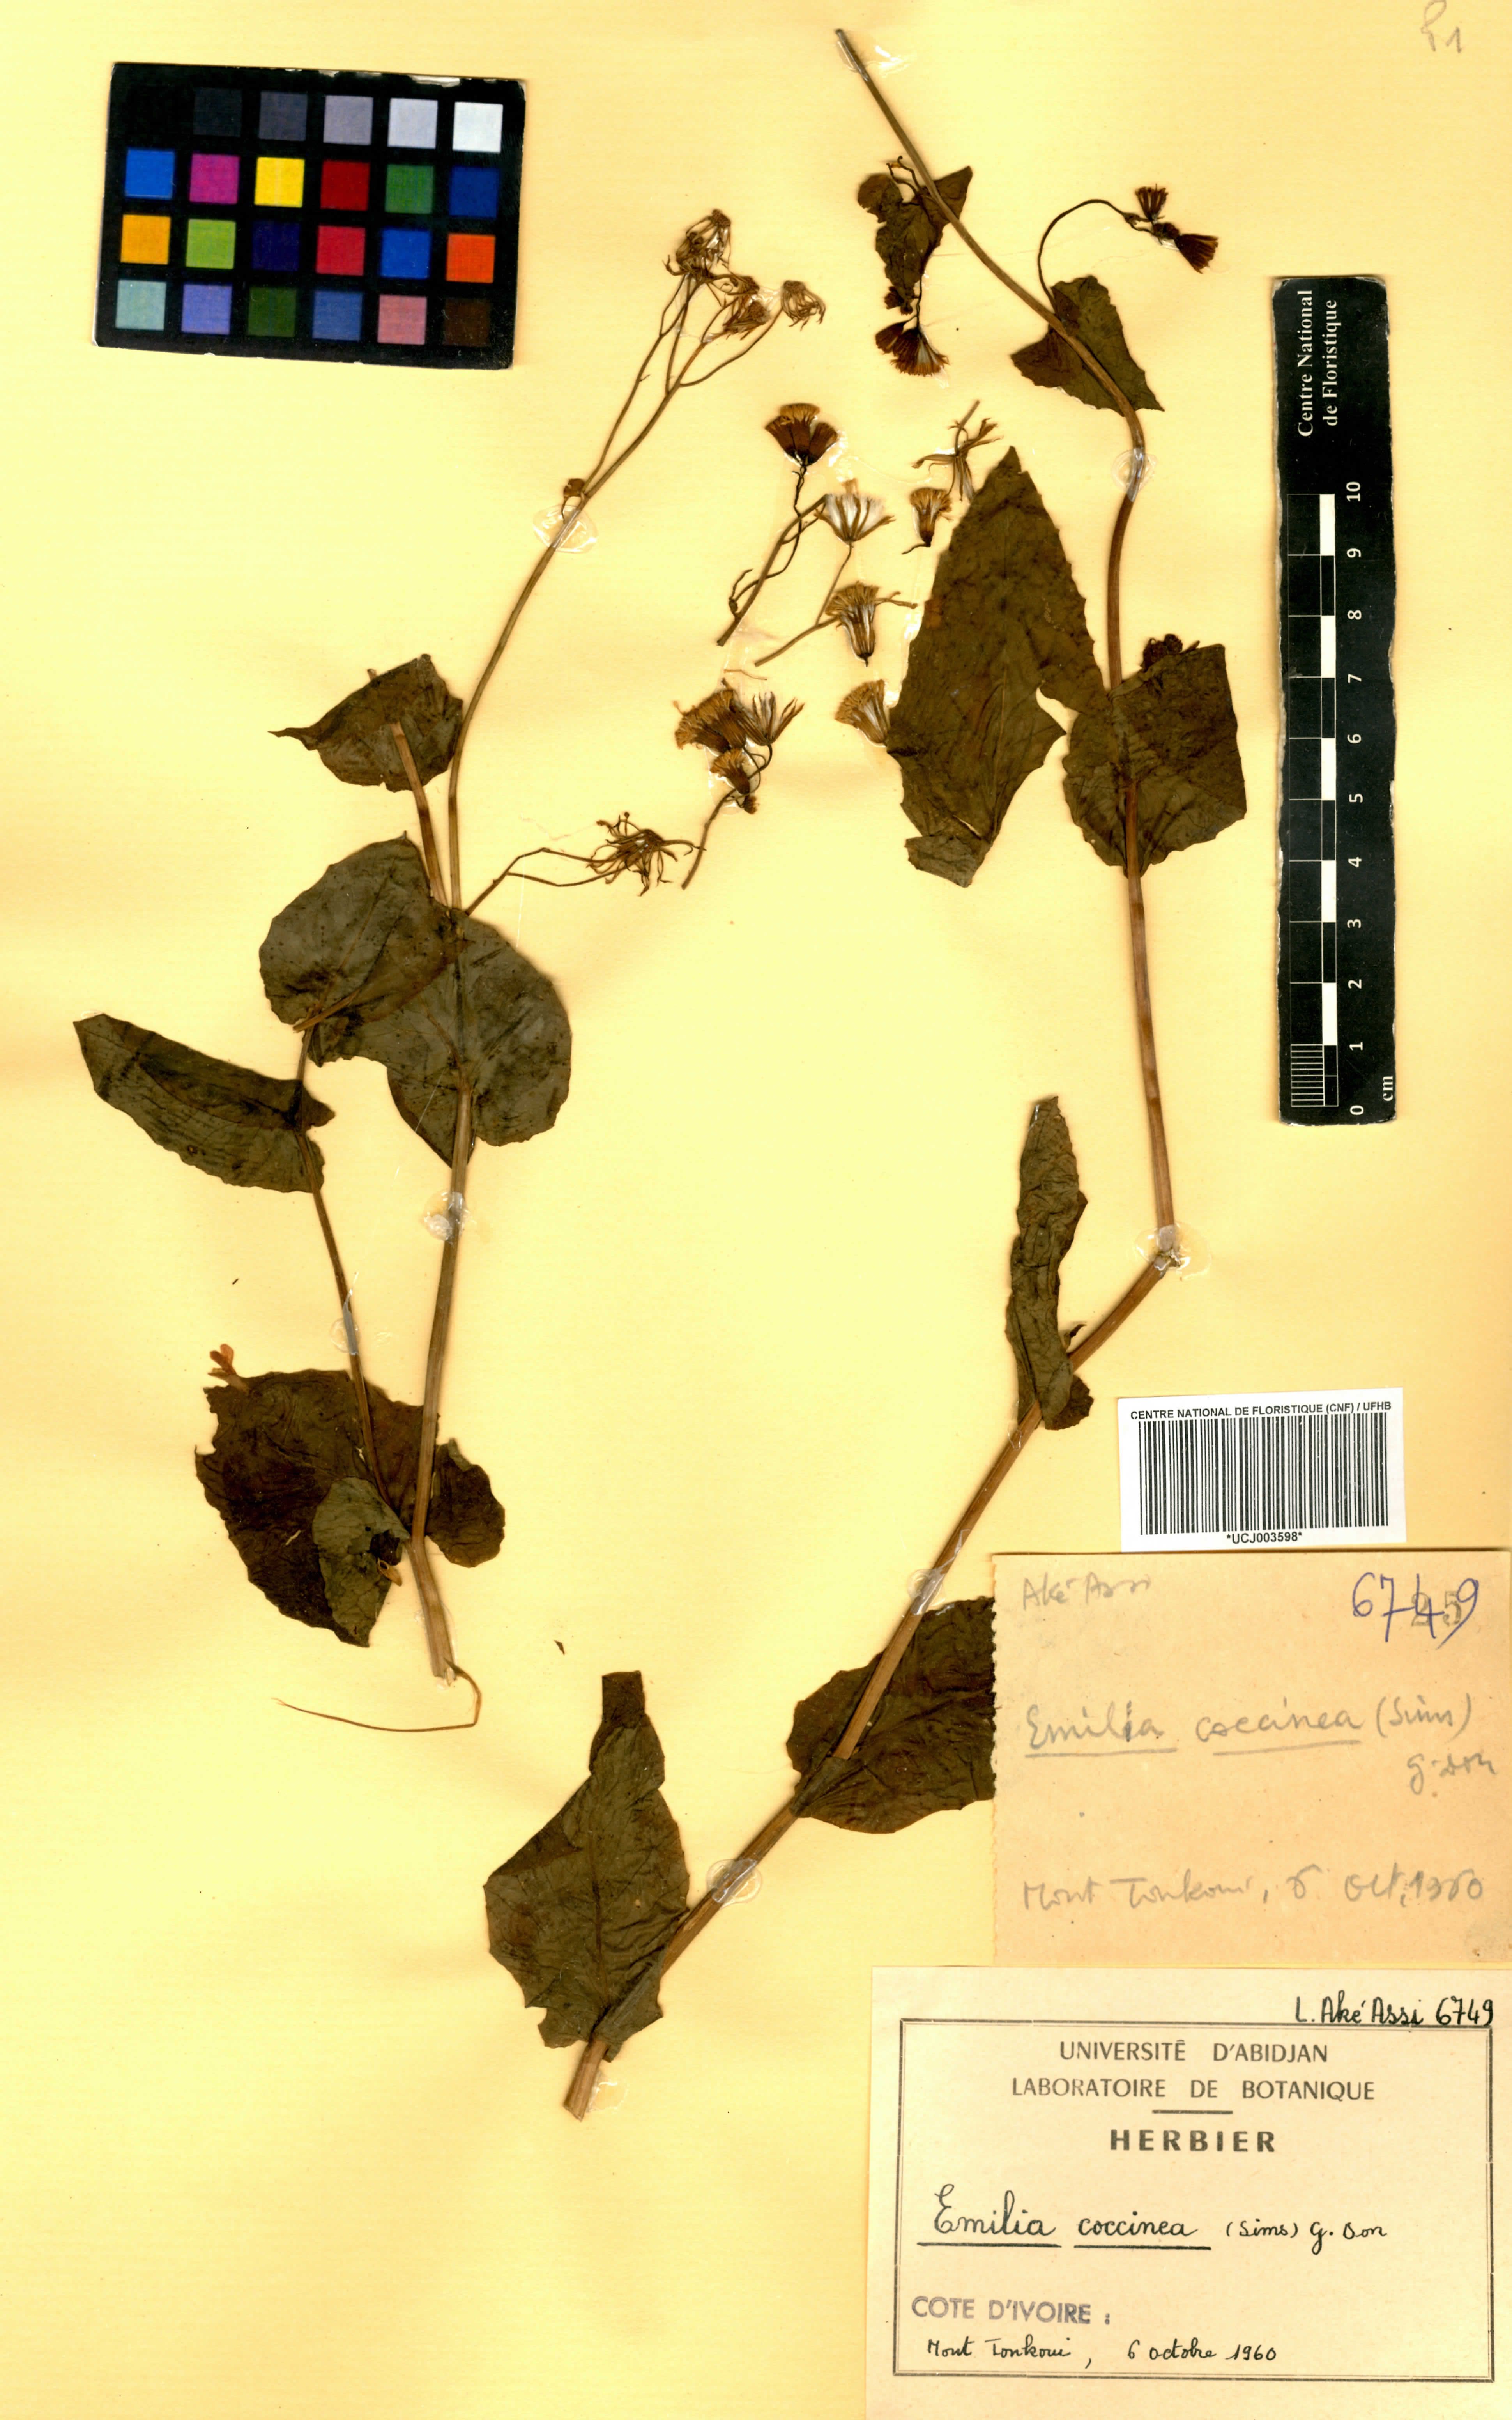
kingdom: Plantae
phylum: Tracheophyta
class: Magnoliopsida
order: Asterales
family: Asteraceae
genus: Emilia
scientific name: Emilia coccinea
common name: Scarlet tasselflower
